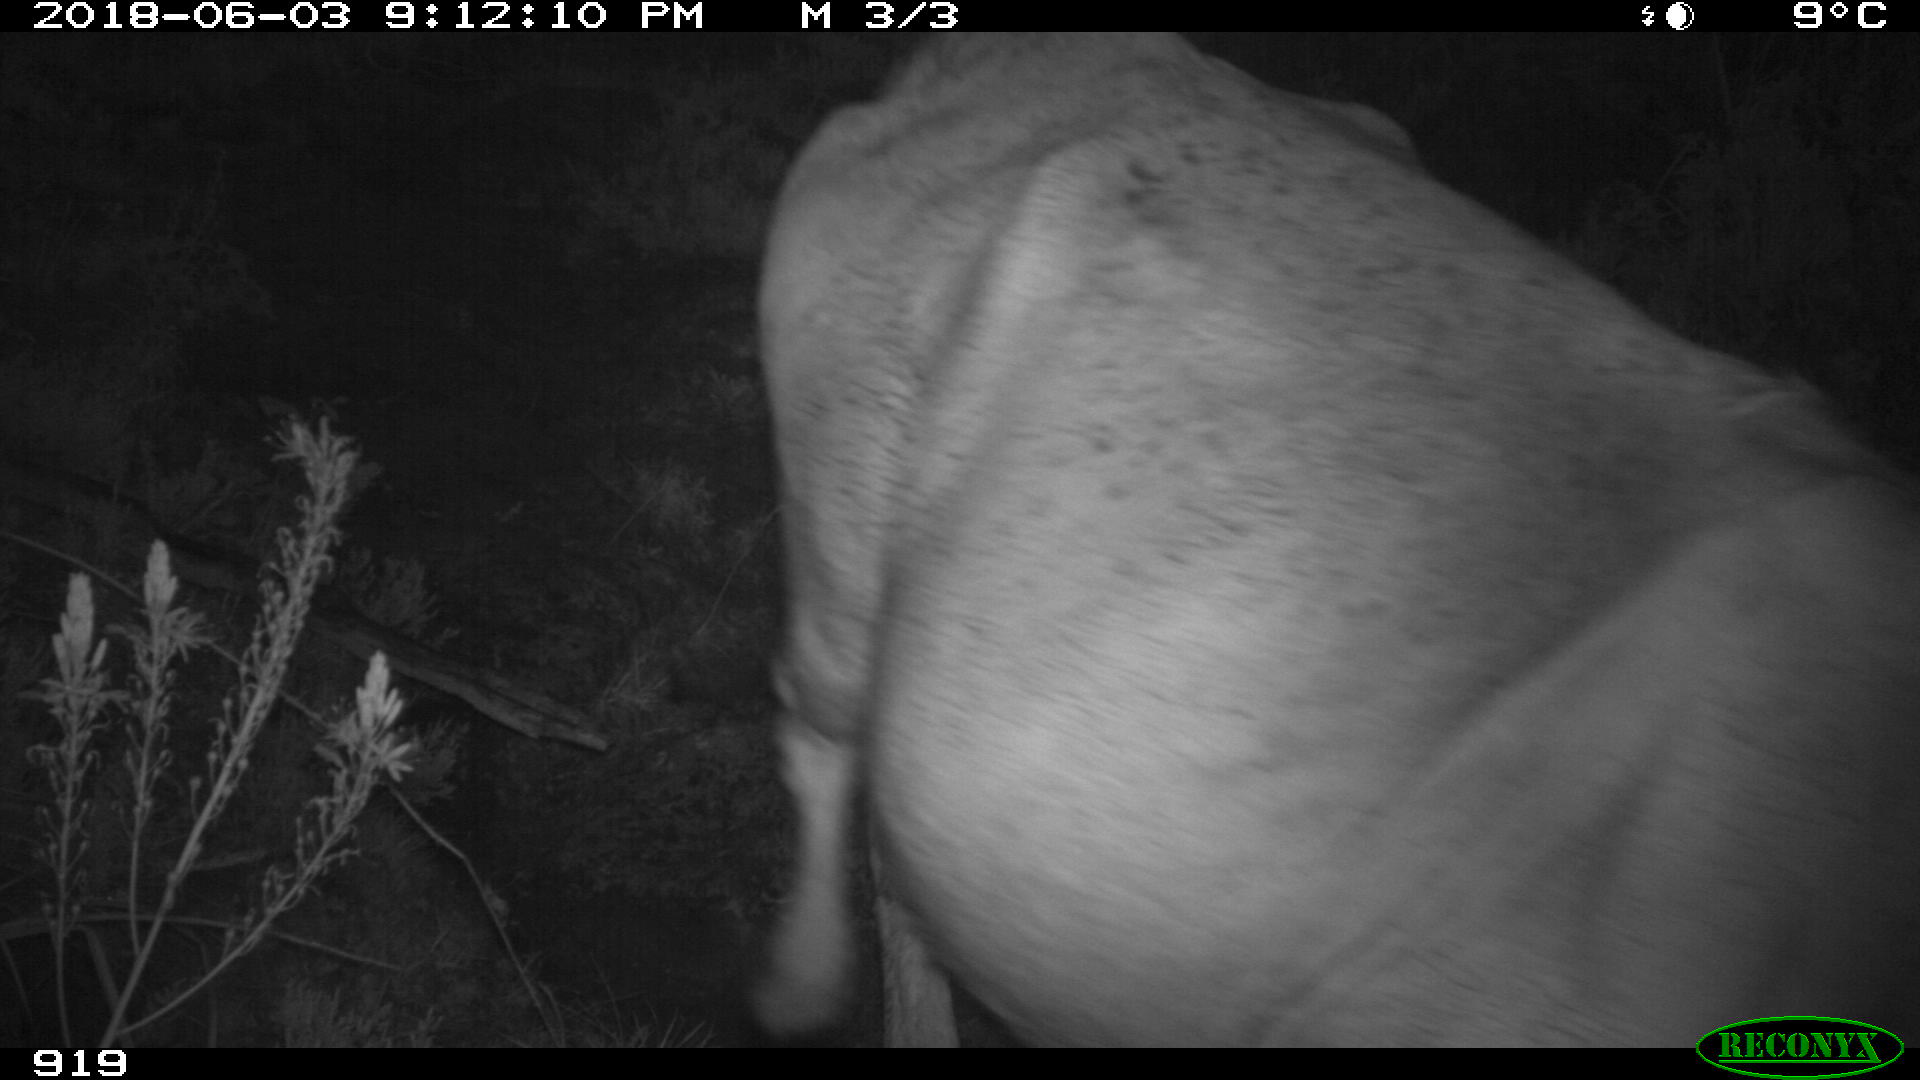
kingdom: Animalia
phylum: Chordata
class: Mammalia
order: Artiodactyla
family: Bovidae
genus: Bos
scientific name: Bos taurus
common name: Domesticated cattle
